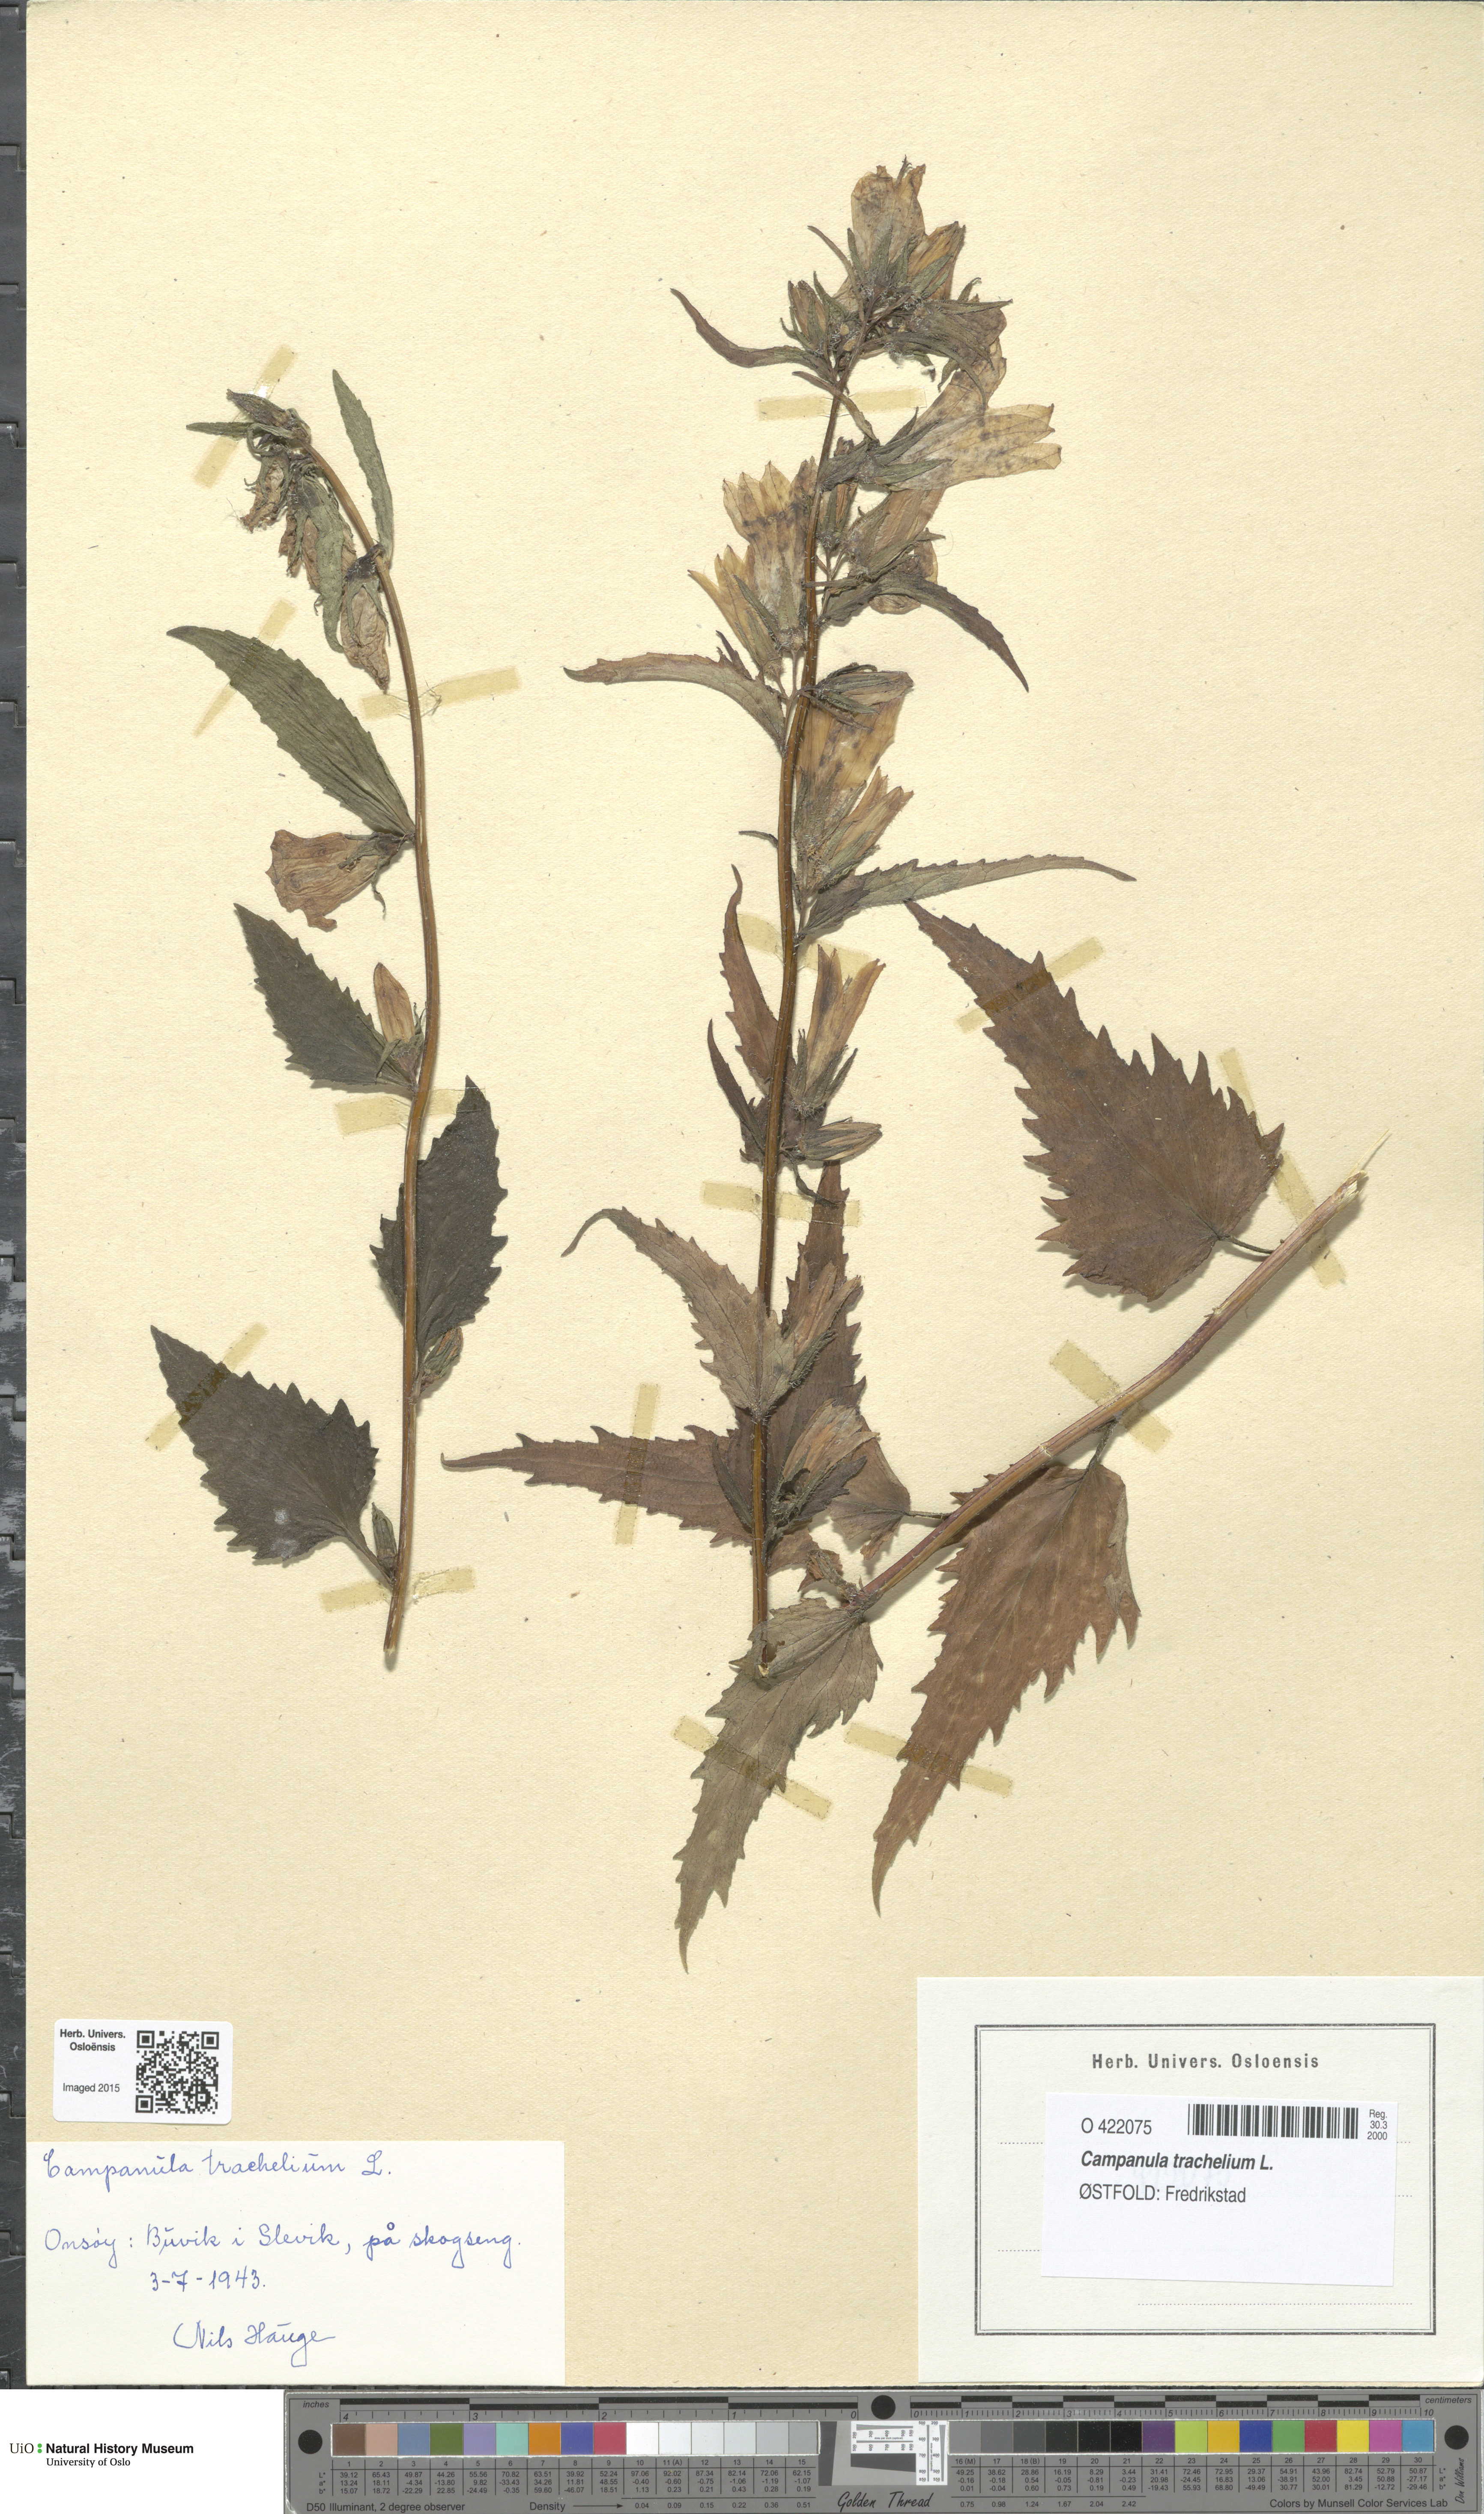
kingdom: Plantae
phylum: Tracheophyta
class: Magnoliopsida
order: Asterales
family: Campanulaceae
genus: Campanula
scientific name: Campanula trachelium
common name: Nettle-leaved bellflower
